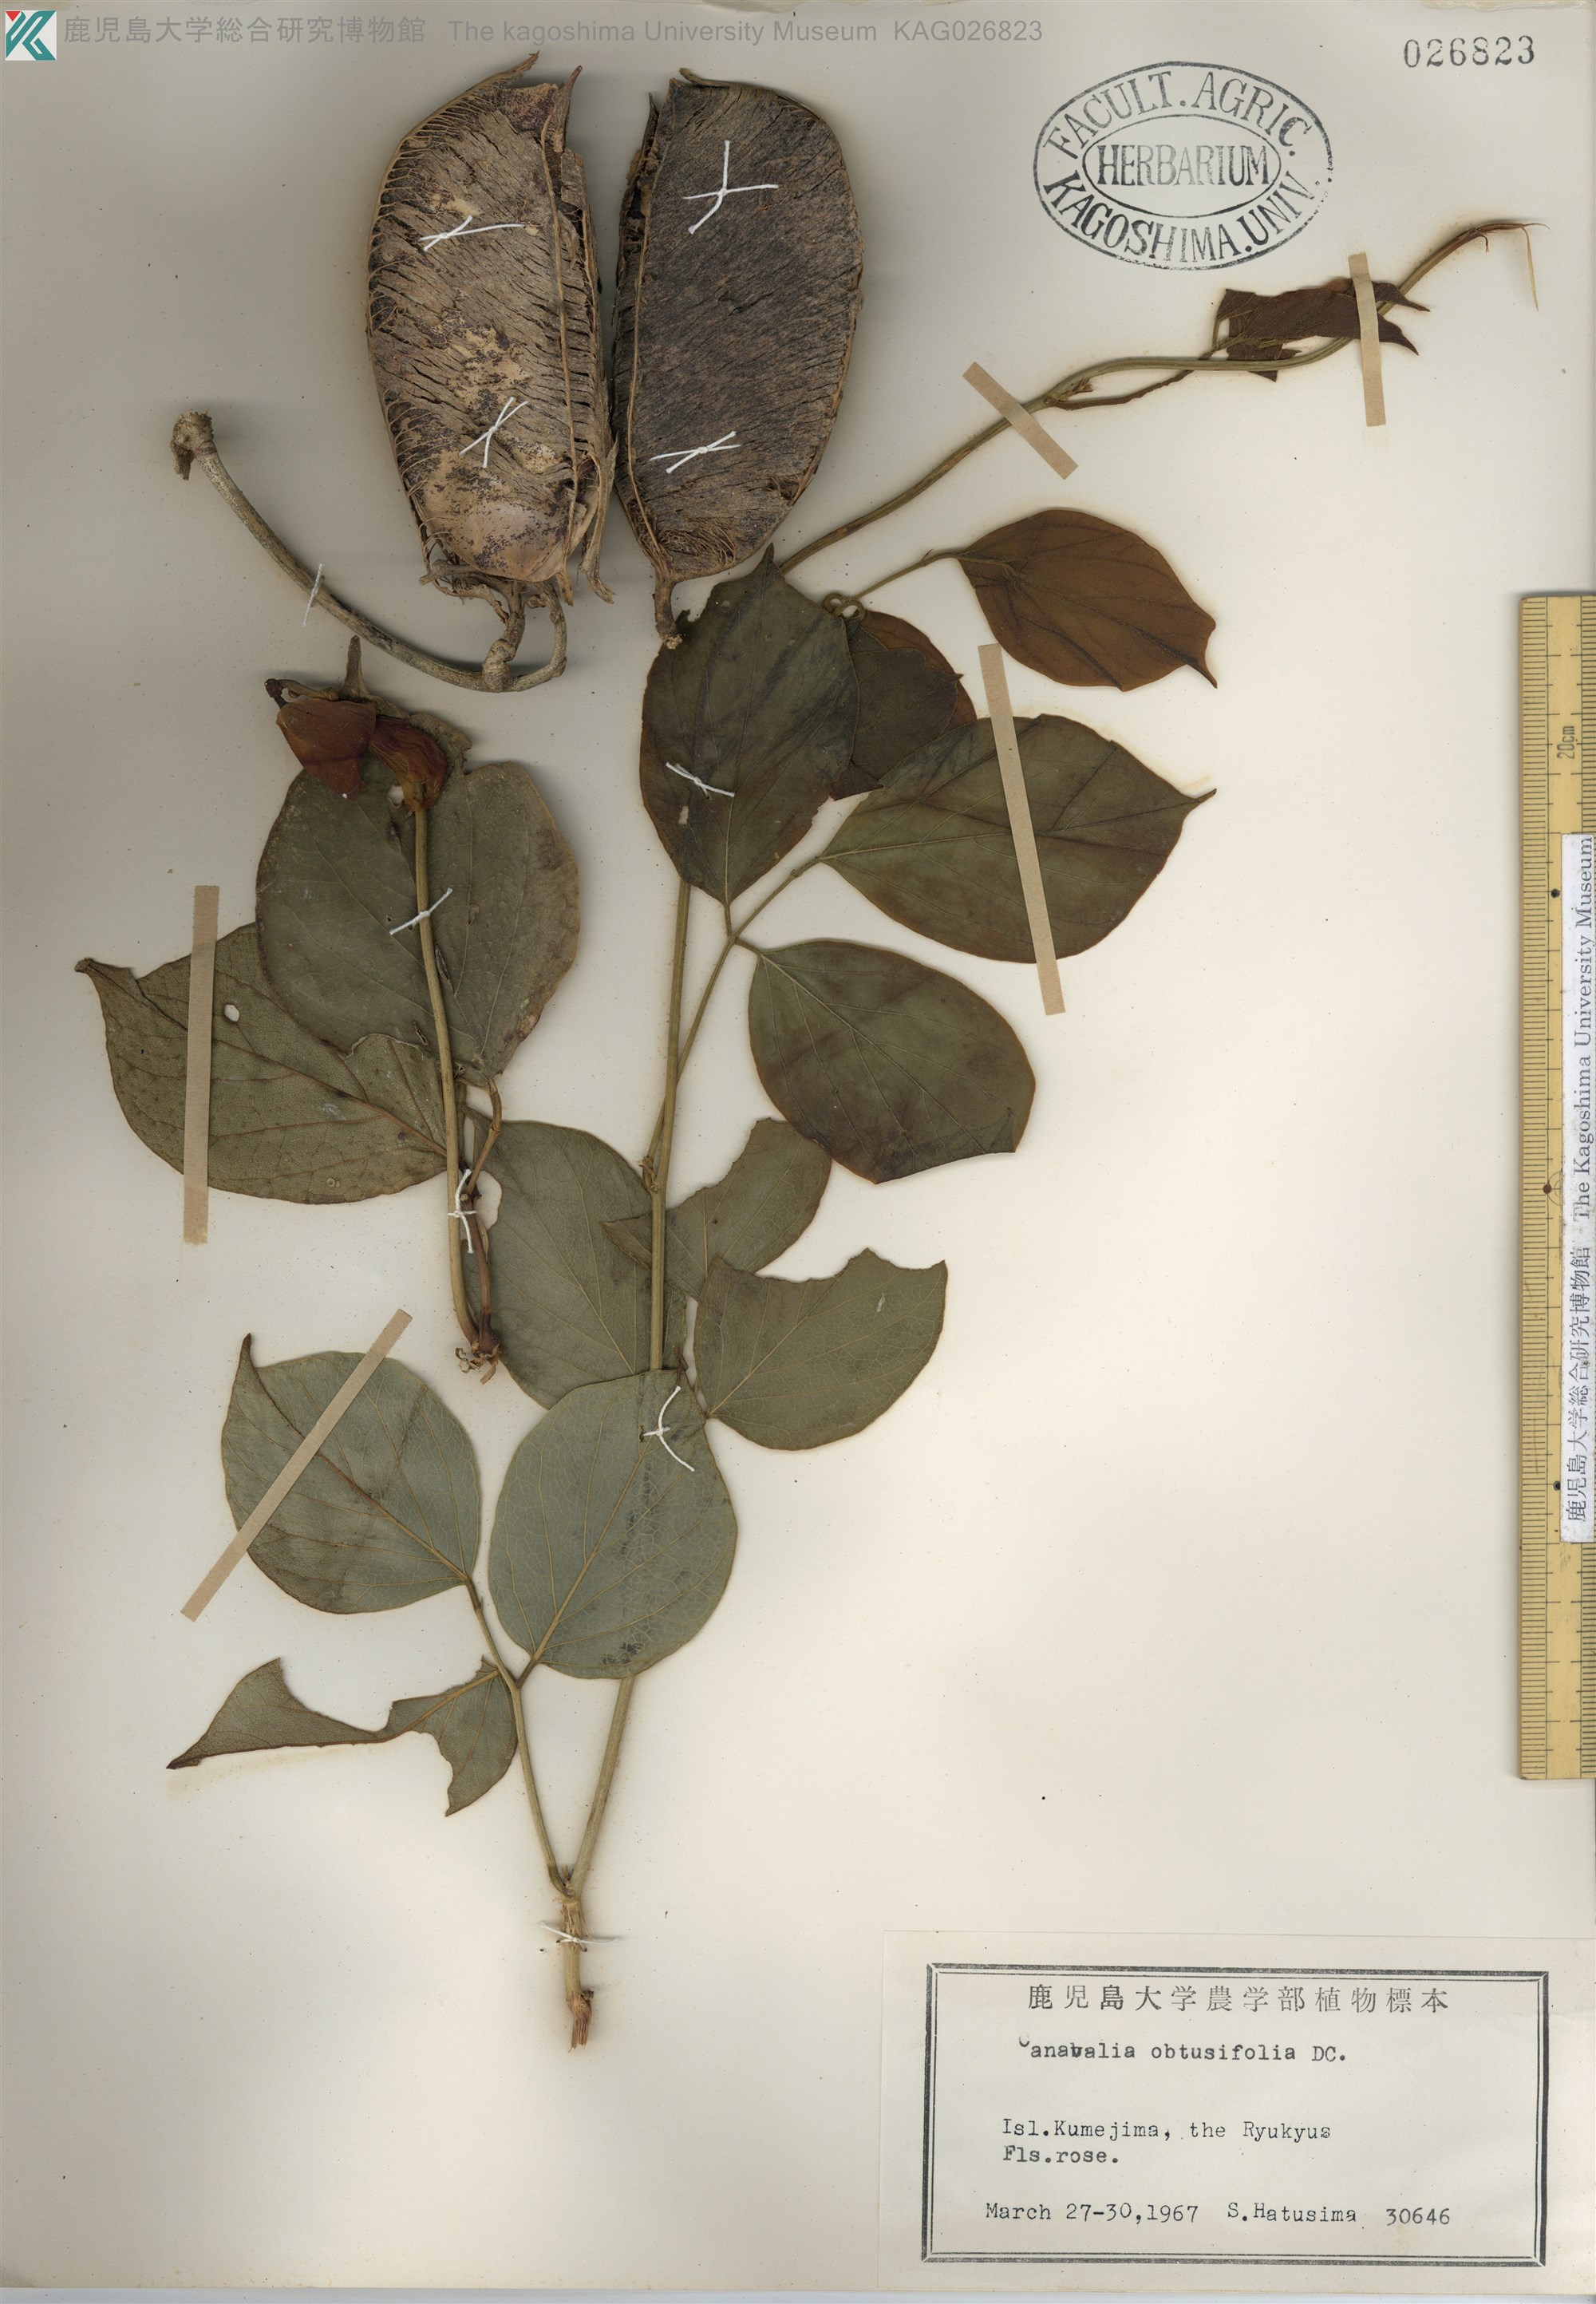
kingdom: Plantae
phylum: Tracheophyta
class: Magnoliopsida
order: Fabales
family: Fabaceae
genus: Canavalia
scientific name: Canavalia cathartica
